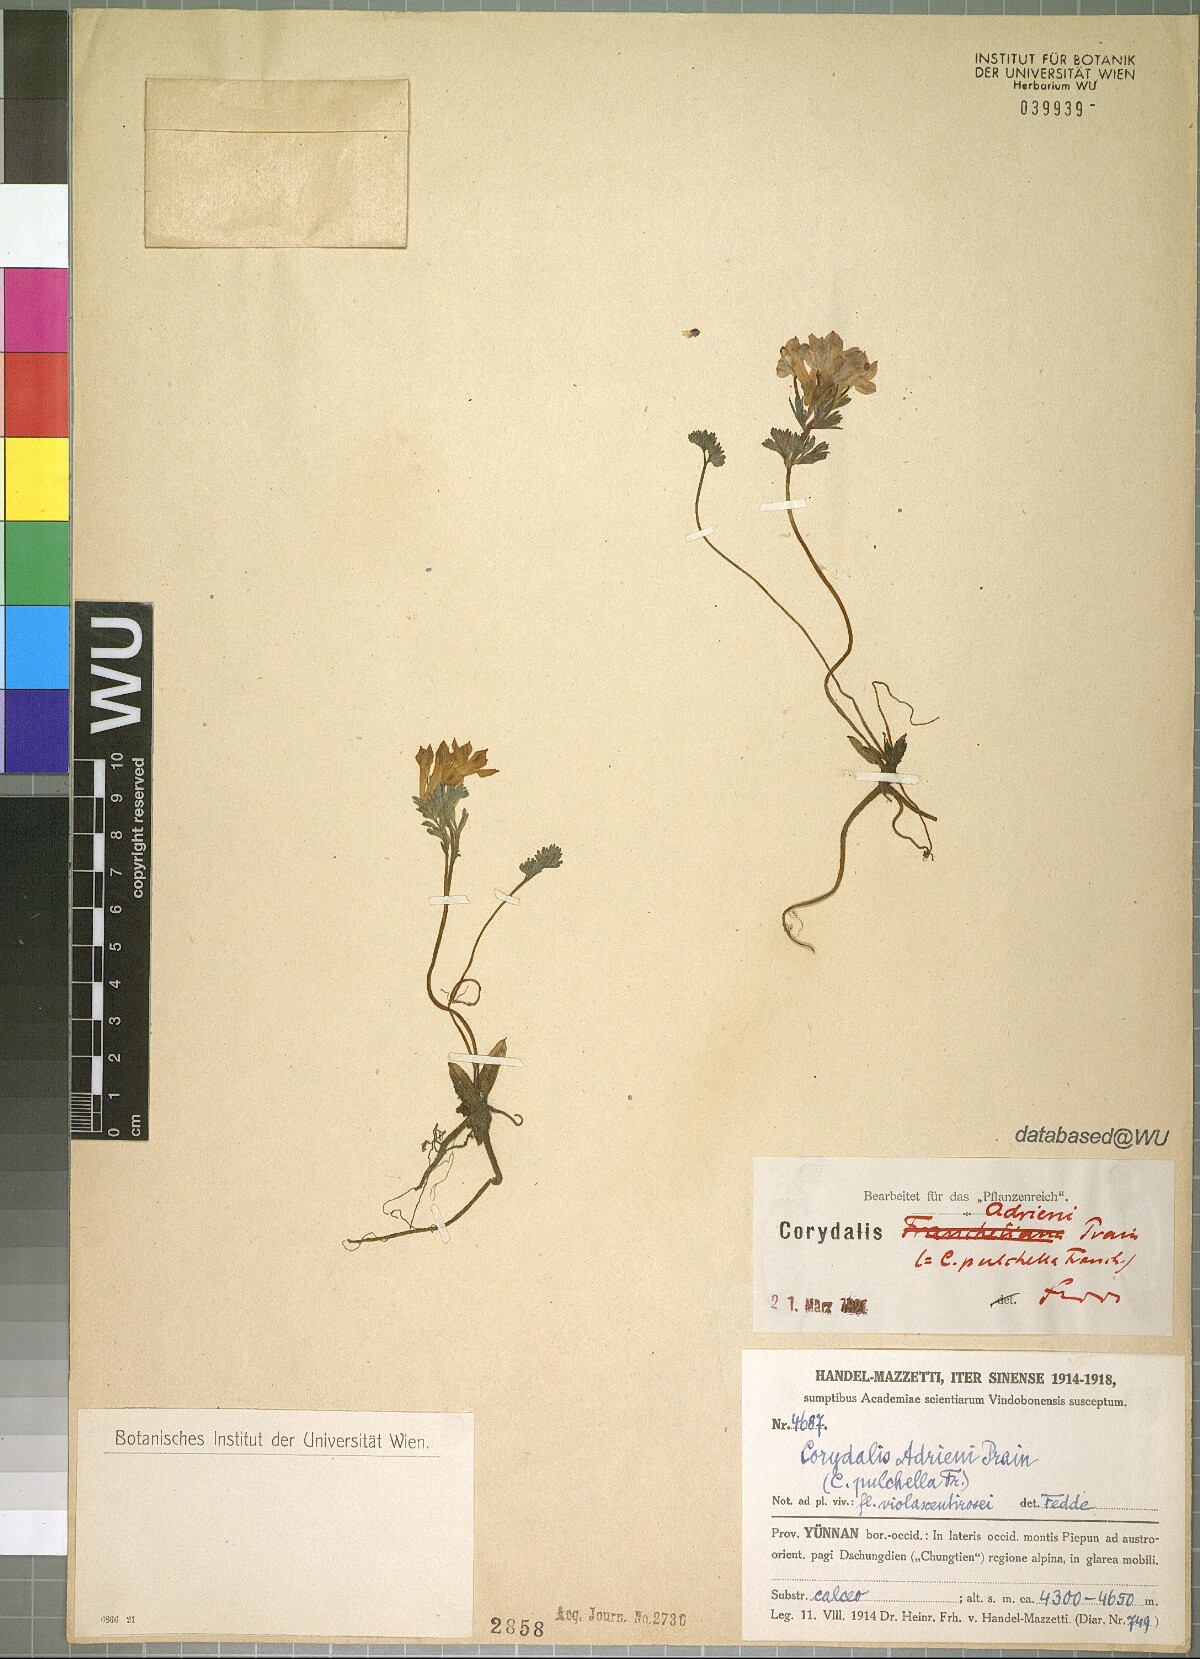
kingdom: Plantae
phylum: Tracheophyta
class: Magnoliopsida
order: Ranunculales
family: Papaveraceae
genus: Corydalis
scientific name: Corydalis melanochlora
